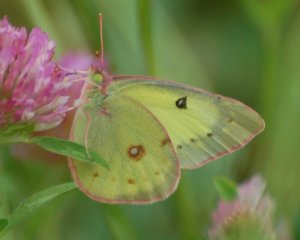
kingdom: Animalia
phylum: Arthropoda
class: Insecta
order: Lepidoptera
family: Pieridae
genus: Colias
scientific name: Colias philodice
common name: Clouded Sulphur
